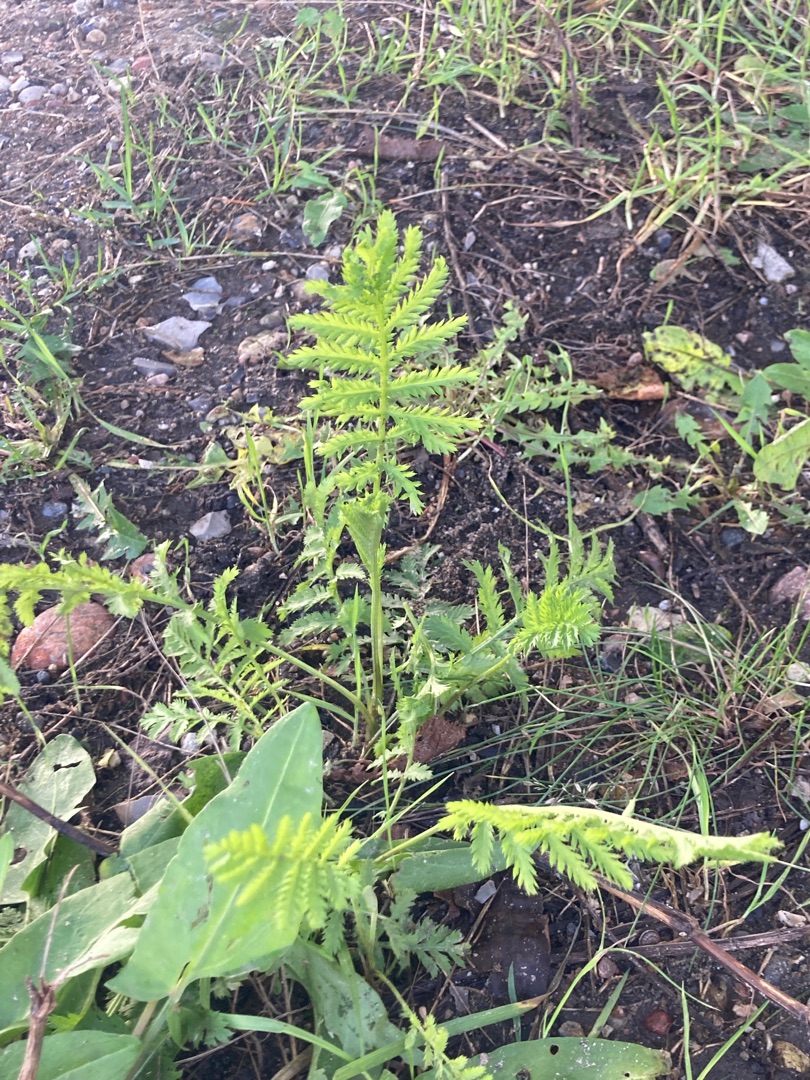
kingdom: Plantae
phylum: Tracheophyta
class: Magnoliopsida
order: Asterales
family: Asteraceae
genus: Tanacetum
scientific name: Tanacetum vulgare
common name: Rejnfan
